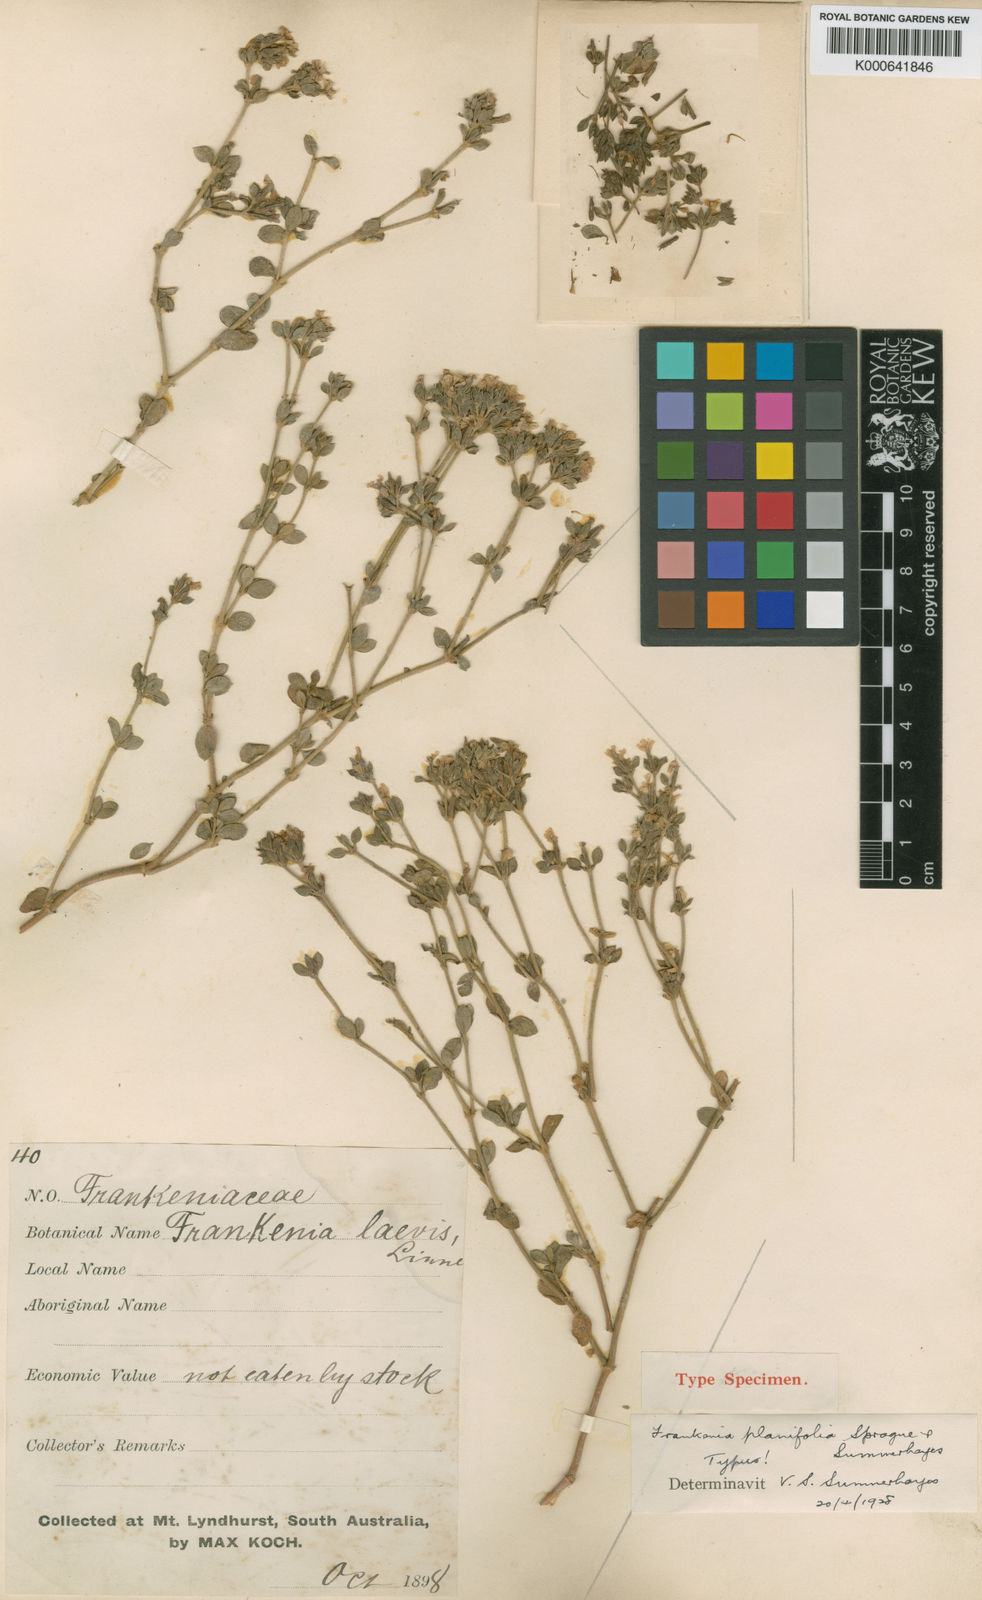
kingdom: Plantae
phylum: Tracheophyta
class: Magnoliopsida
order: Caryophyllales
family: Frankeniaceae
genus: Frankenia
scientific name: Frankenia planifolia
